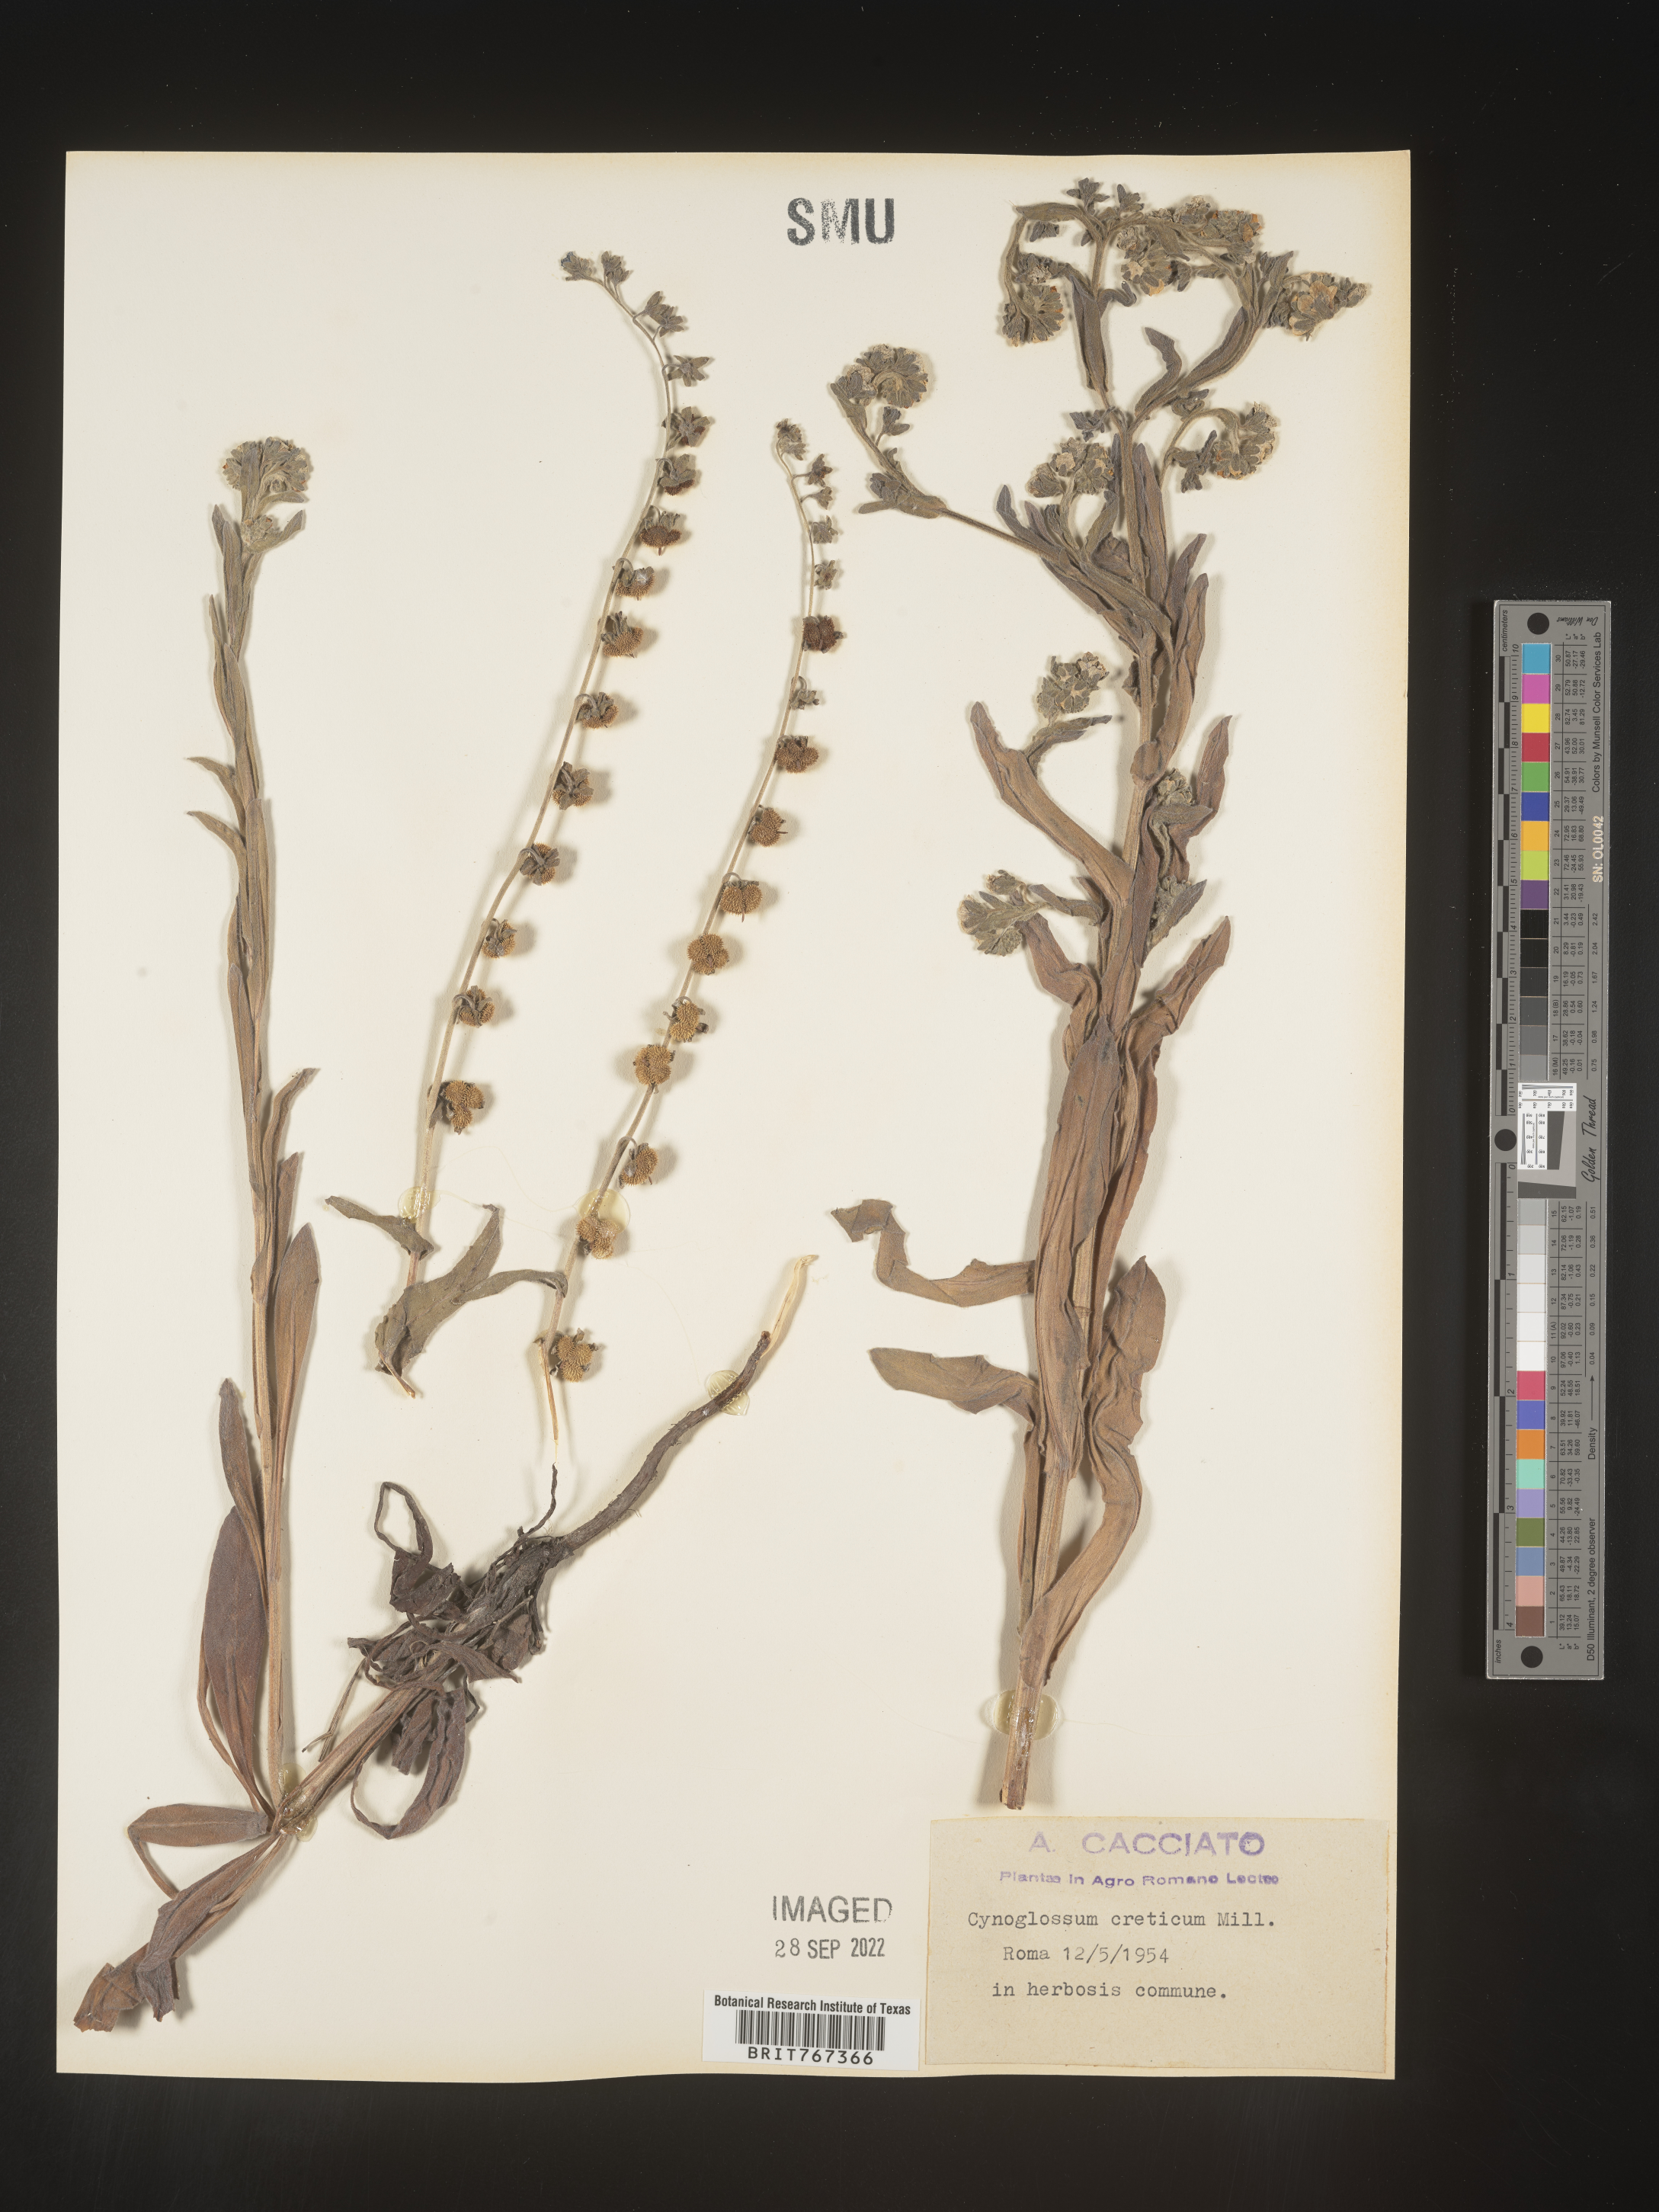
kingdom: Plantae
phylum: Tracheophyta
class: Magnoliopsida
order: Boraginales
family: Boraginaceae
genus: Cynoglossum
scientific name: Cynoglossum
